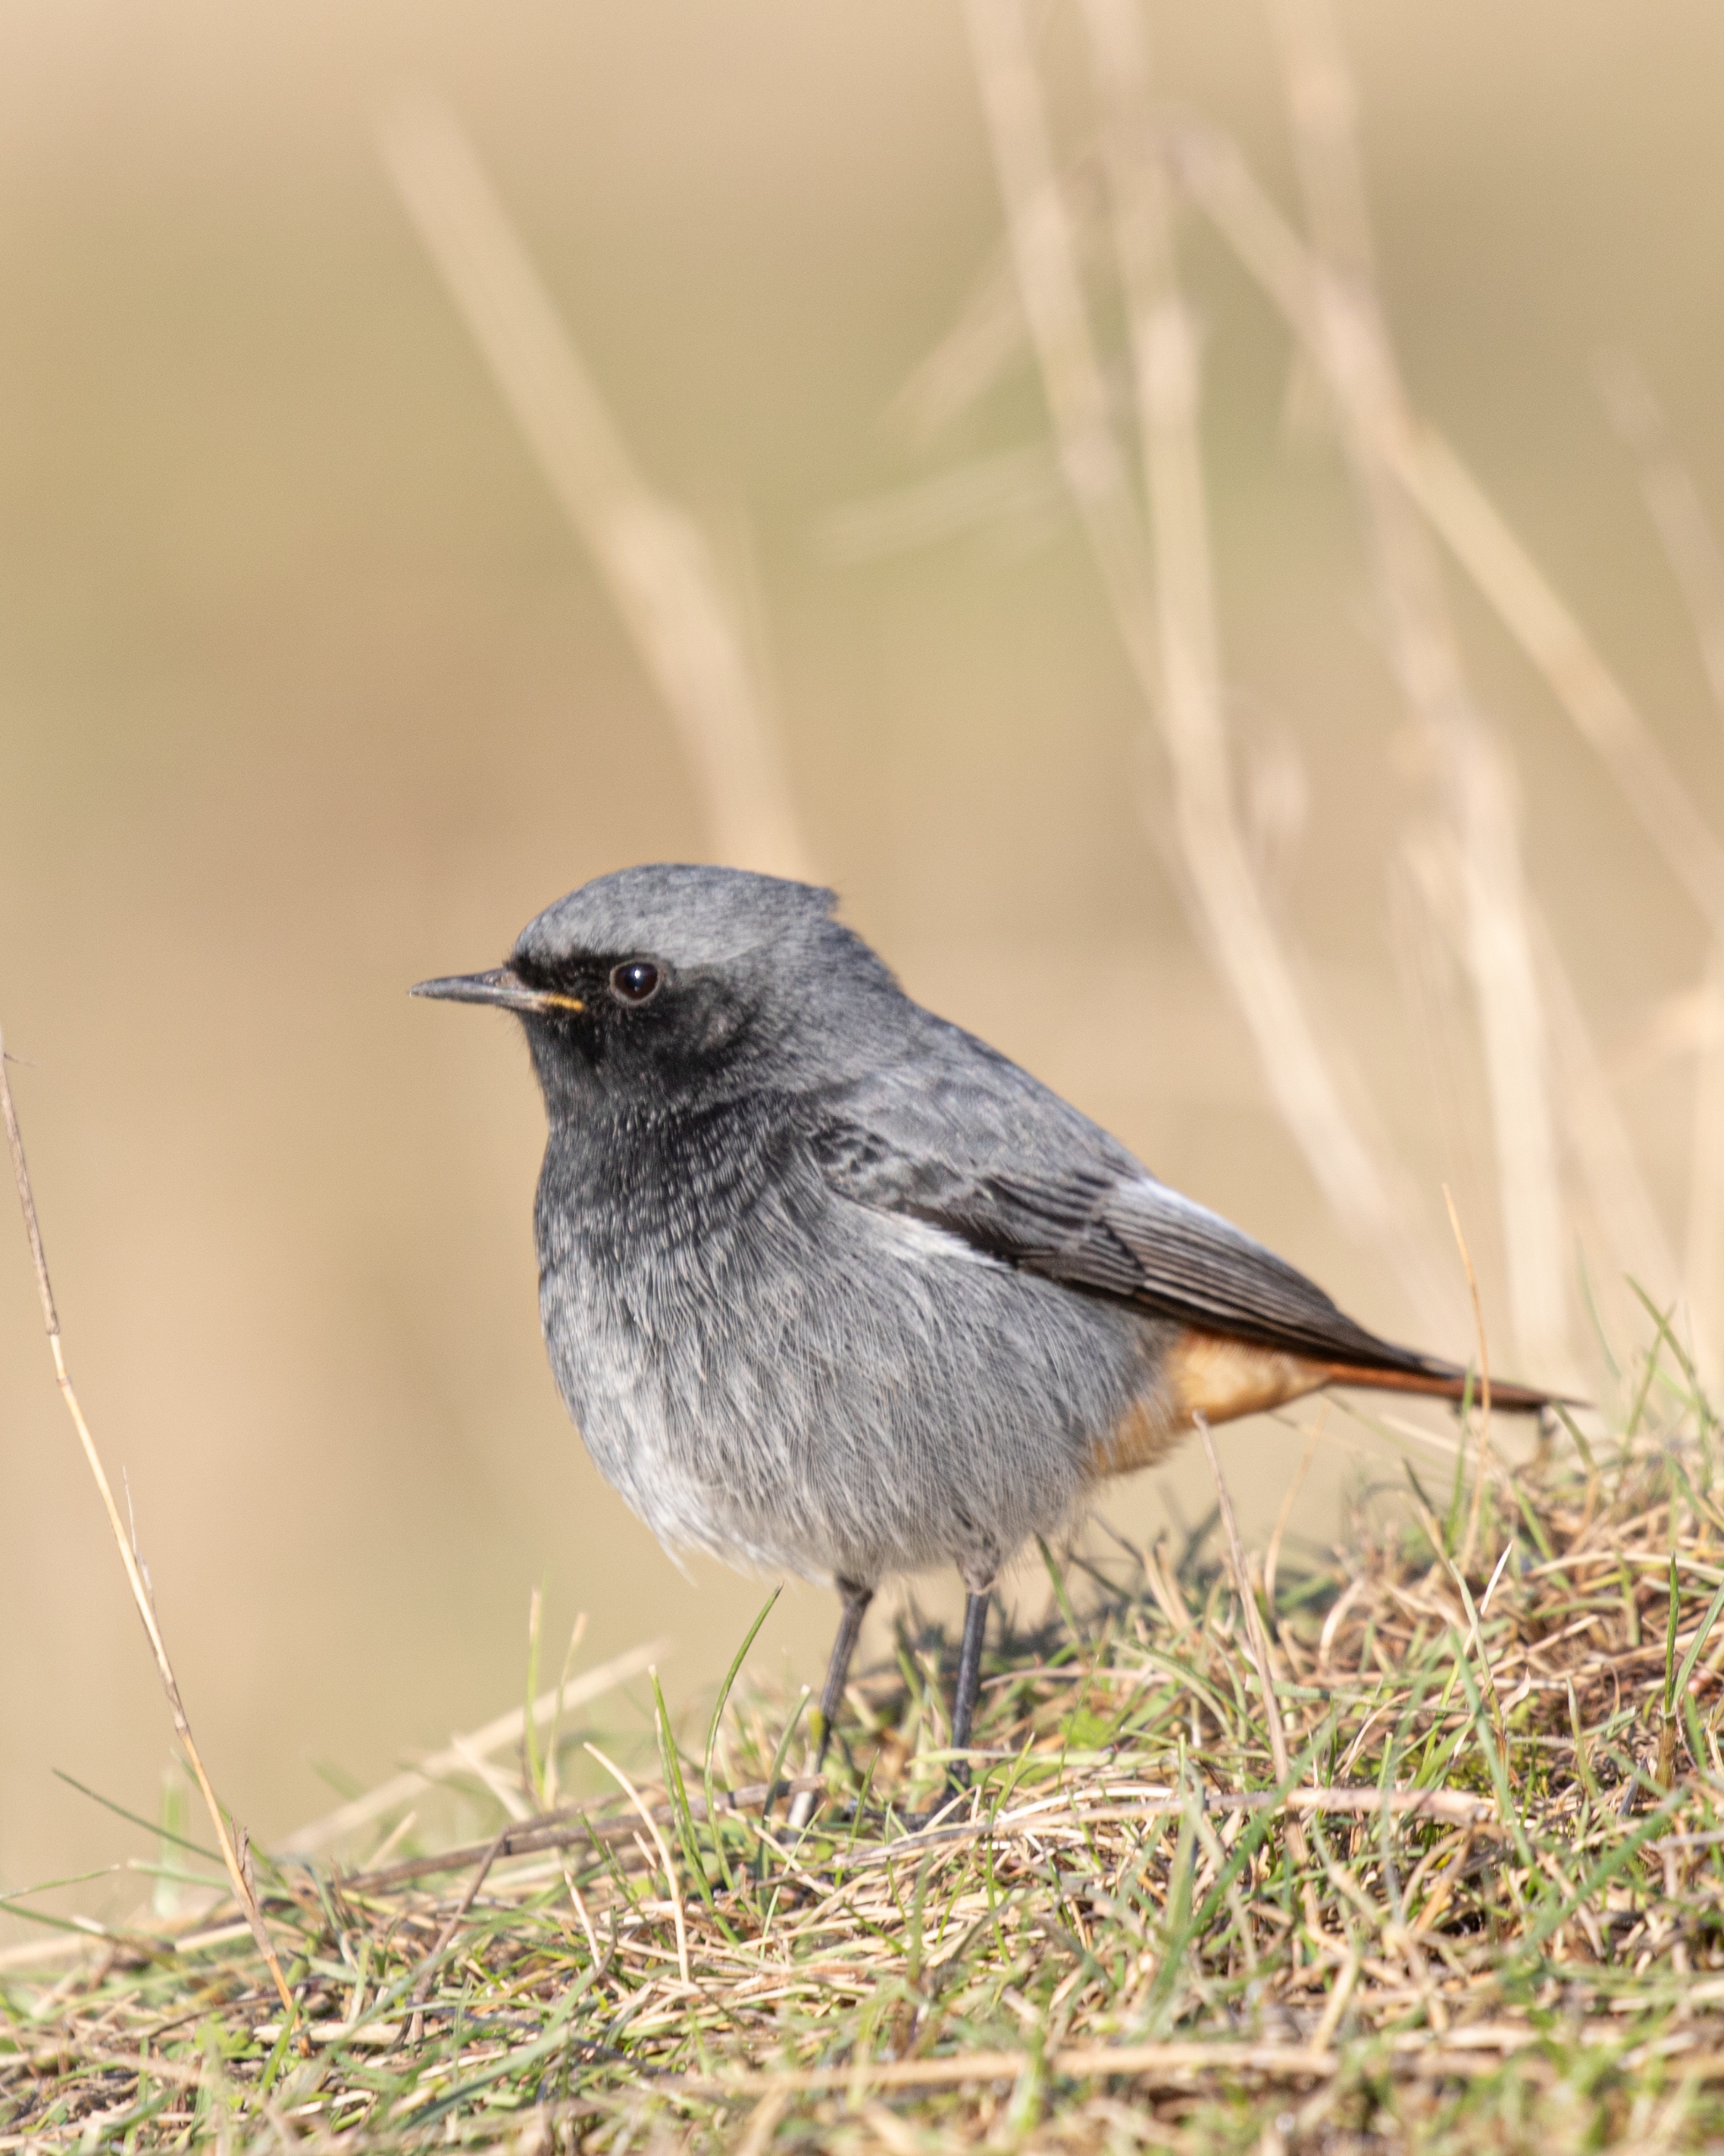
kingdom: Animalia
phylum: Chordata
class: Aves
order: Passeriformes
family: Muscicapidae
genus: Phoenicurus
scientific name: Phoenicurus ochruros
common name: Husrødstjert
